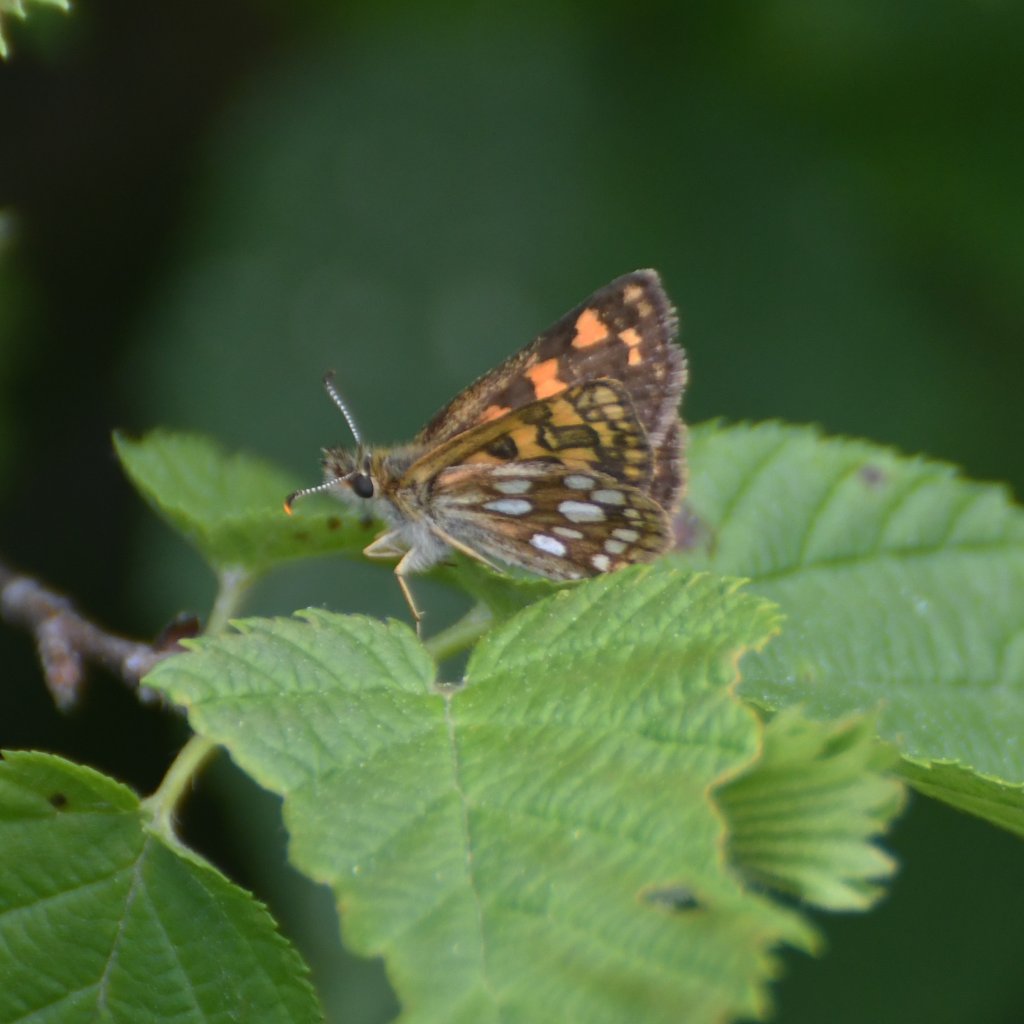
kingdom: Animalia
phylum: Arthropoda
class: Insecta
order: Lepidoptera
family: Hesperiidae
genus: Carterocephalus
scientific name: Carterocephalus palaemon
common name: Chequered Skipper
